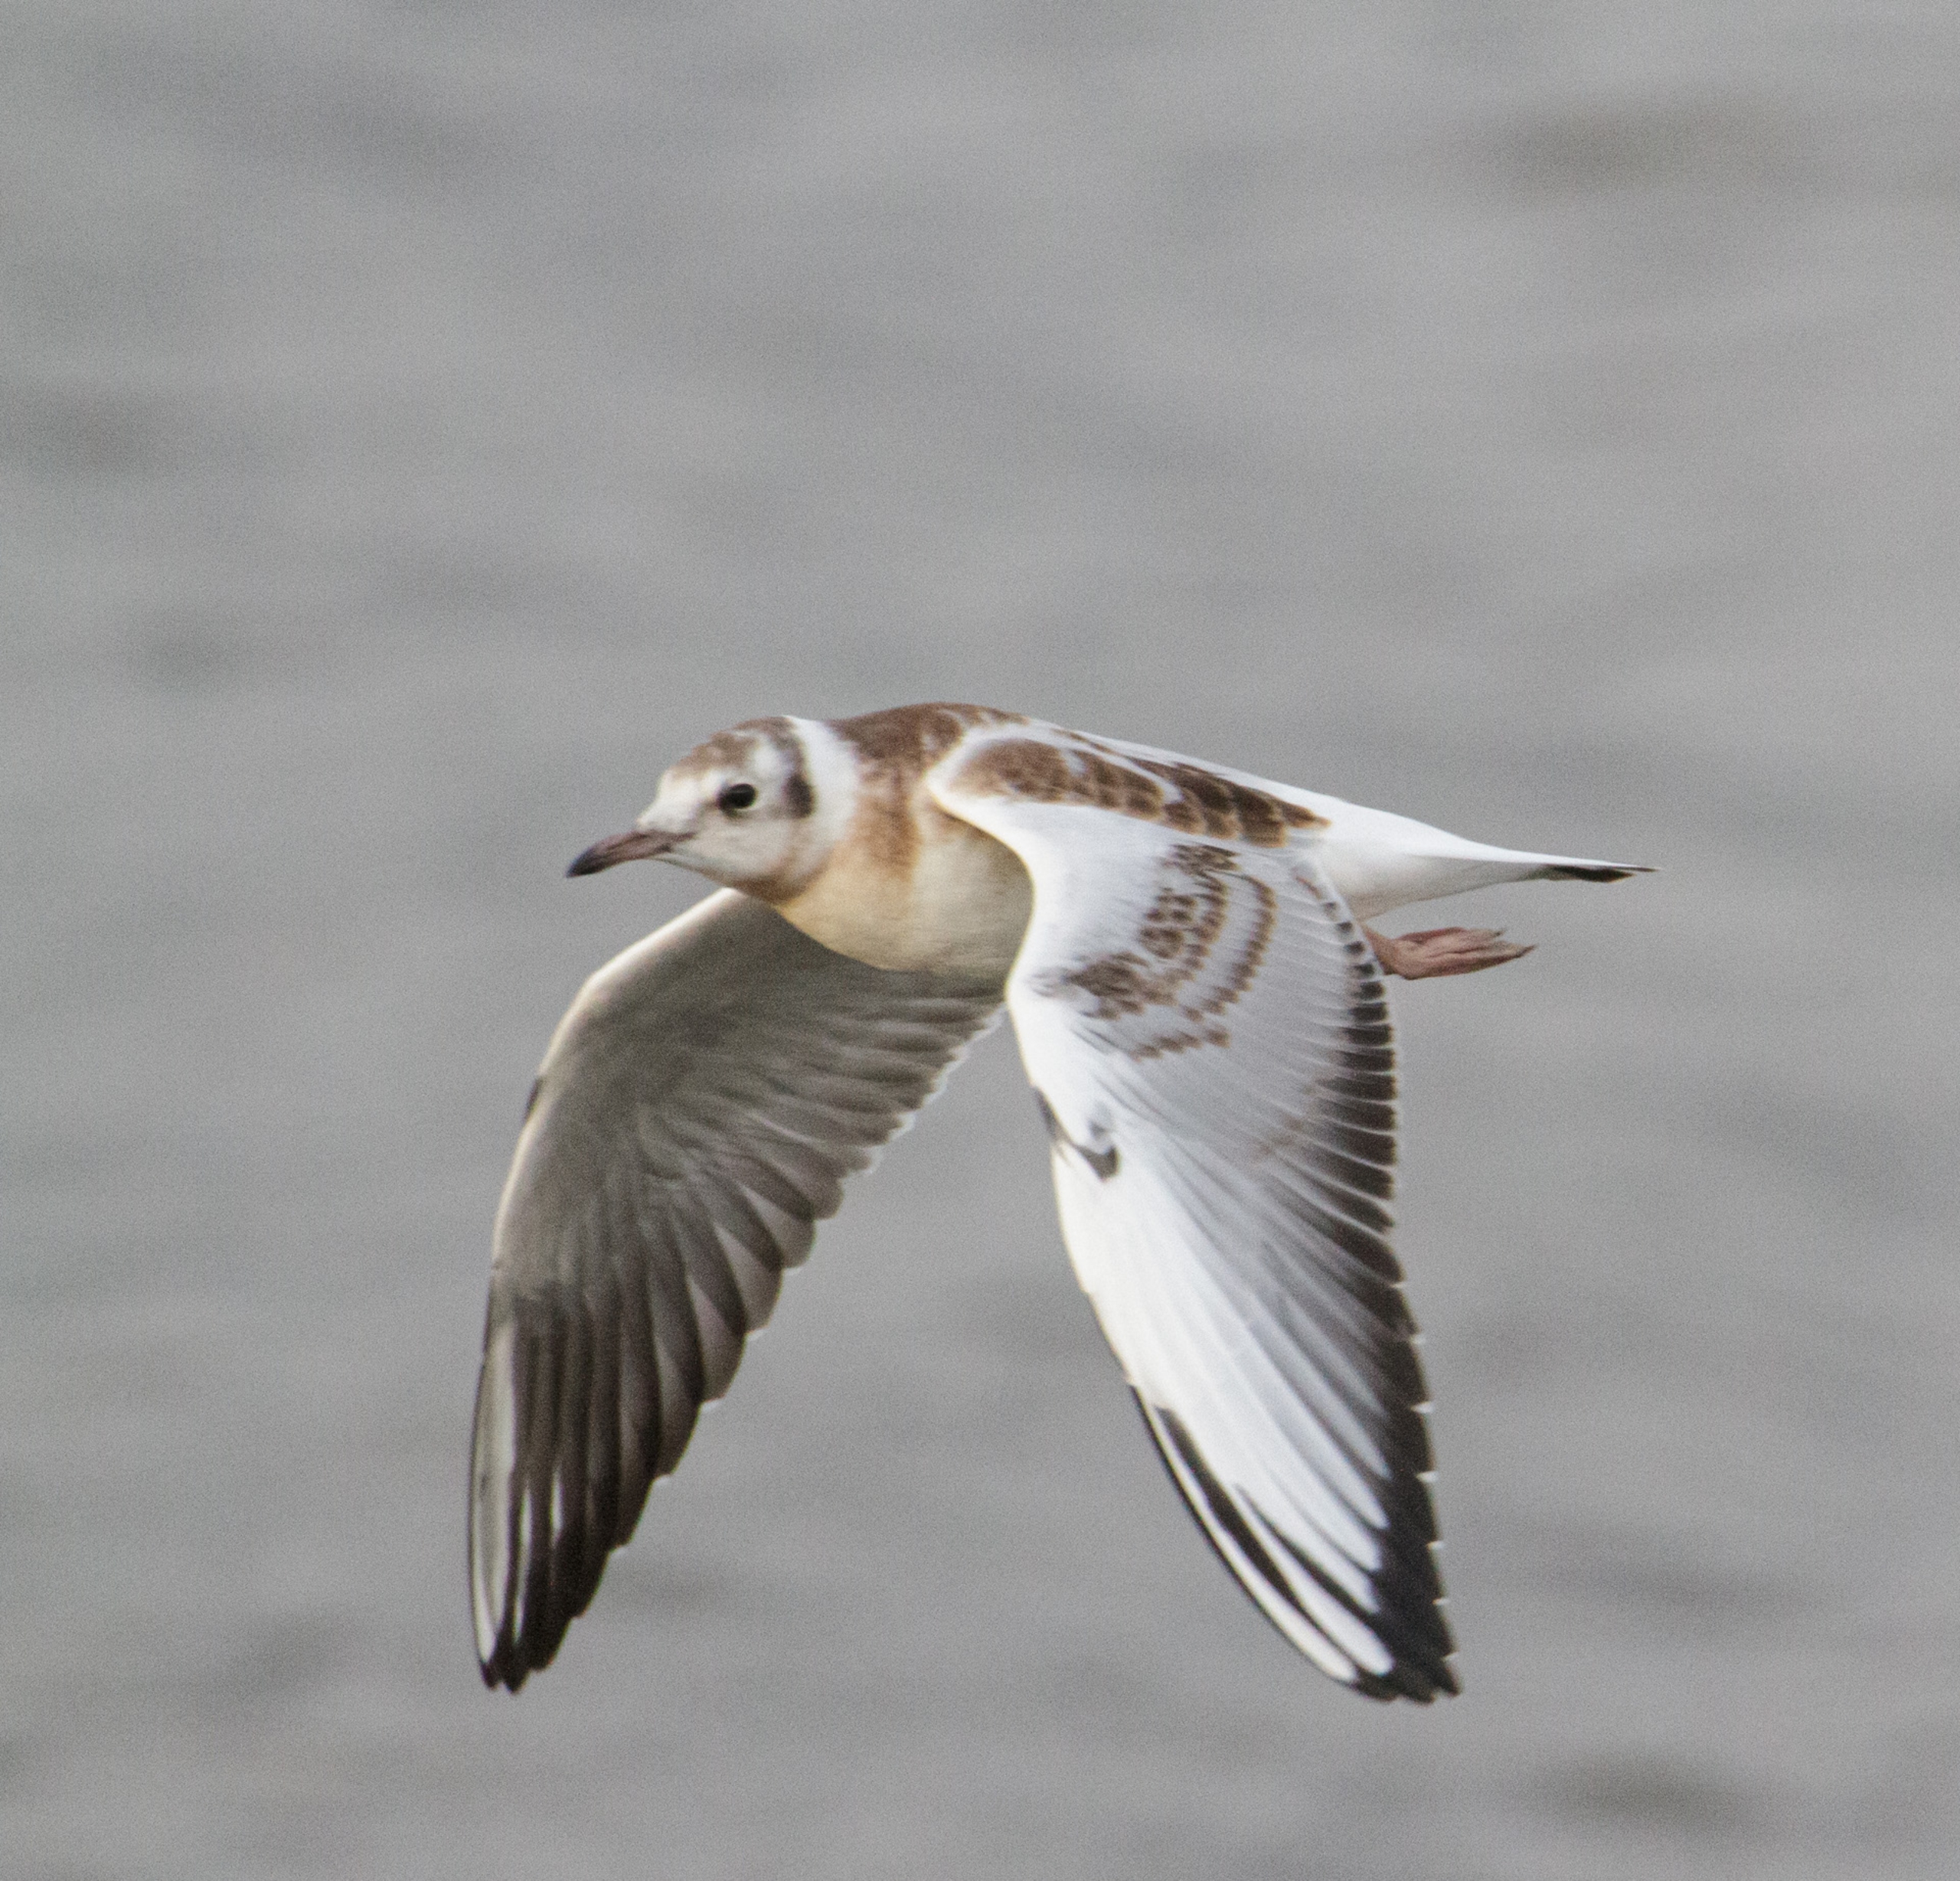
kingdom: Animalia
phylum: Chordata
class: Aves
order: Charadriiformes
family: Laridae
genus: Chroicocephalus
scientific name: Chroicocephalus ridibundus
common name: Hættemåge
